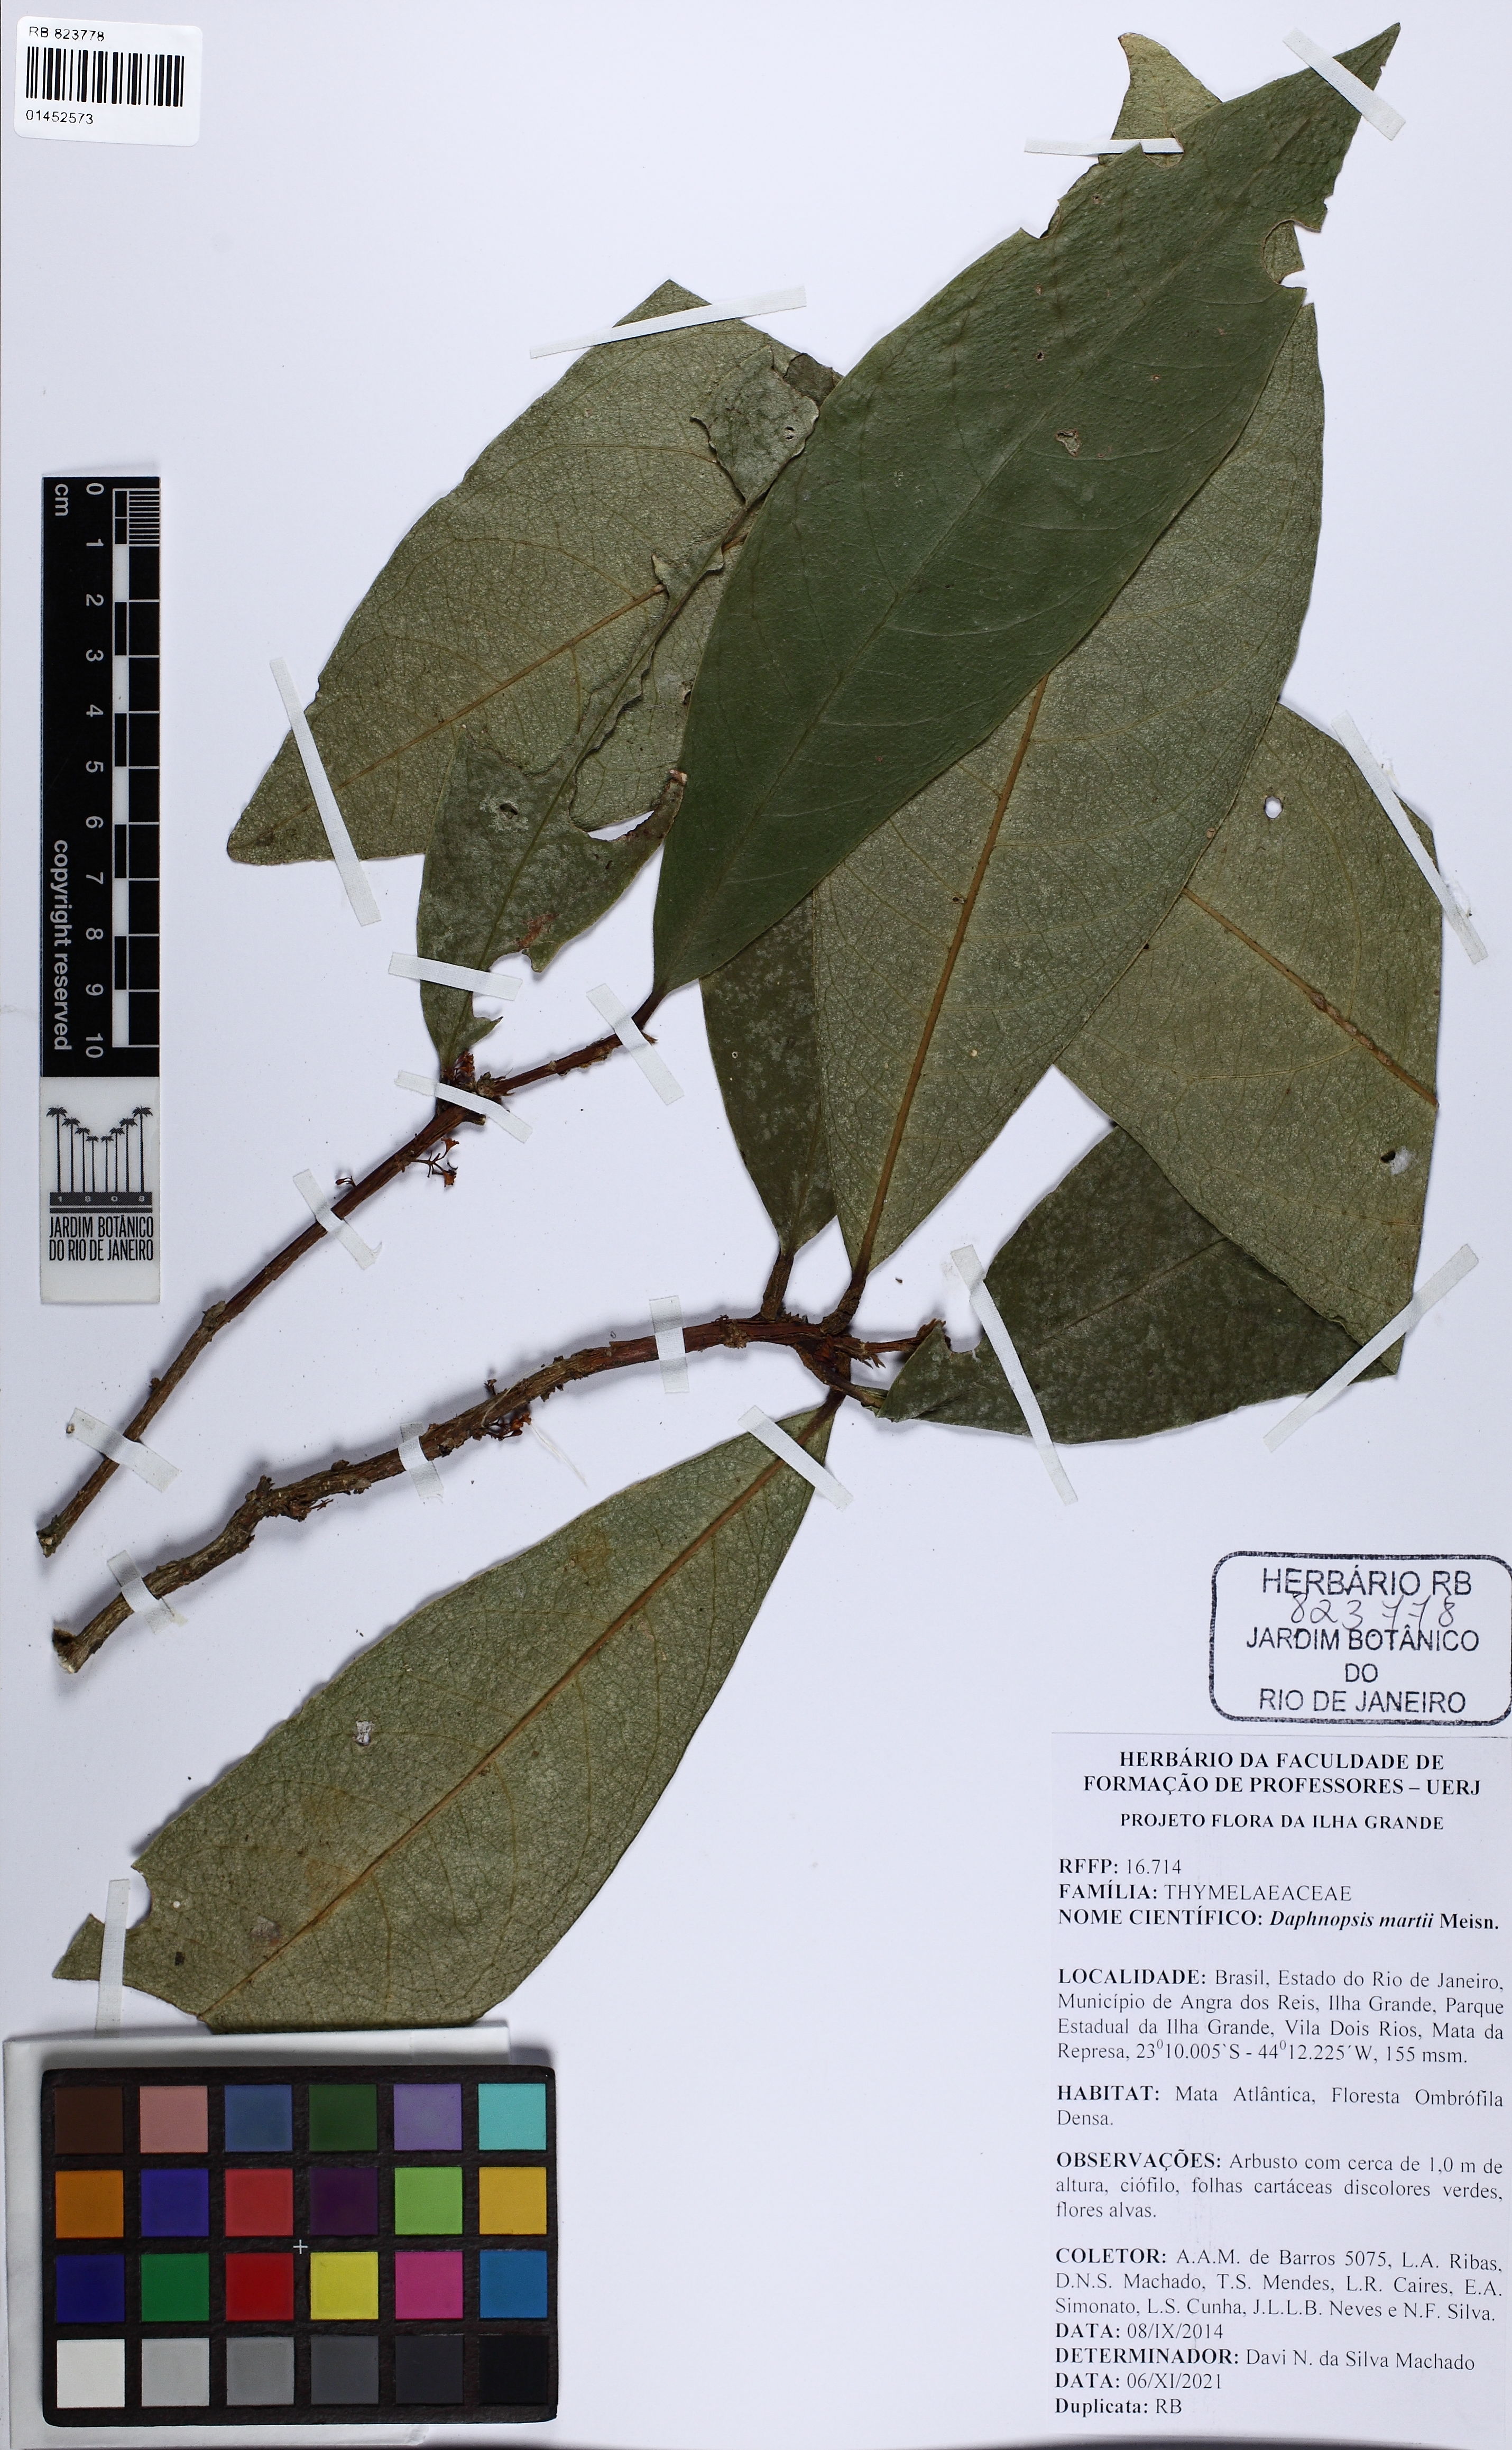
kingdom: Plantae
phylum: Tracheophyta
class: Magnoliopsida
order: Malvales
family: Thymelaeaceae
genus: Daphnopsis
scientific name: Daphnopsis martii
